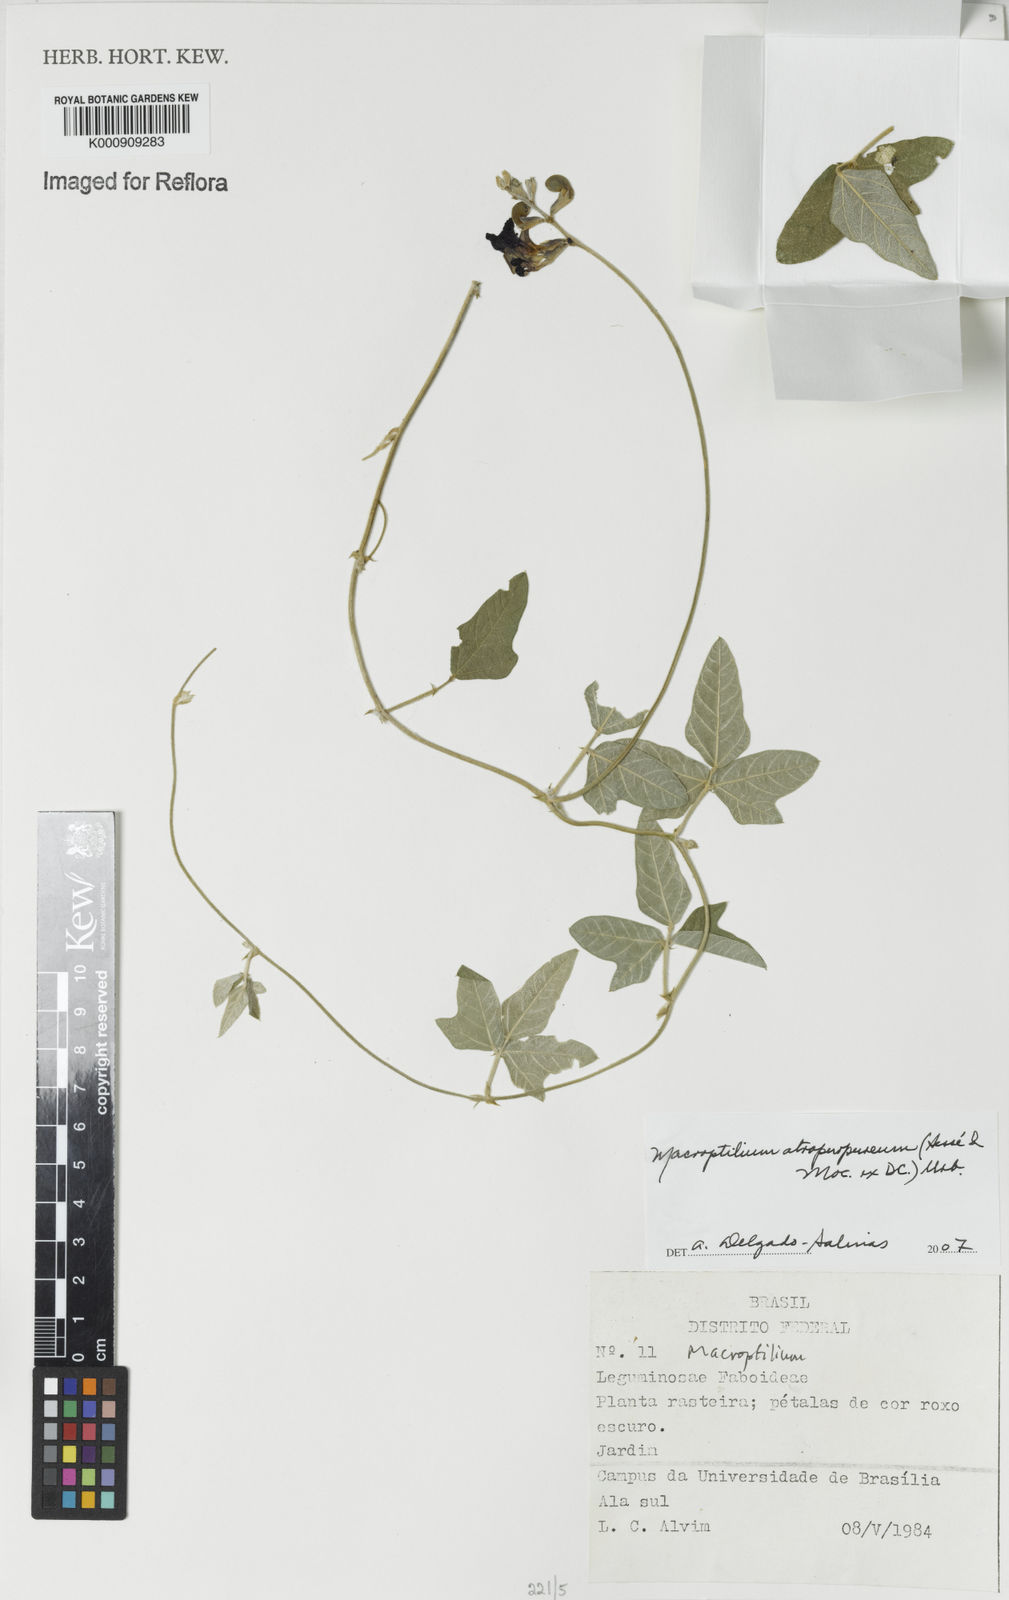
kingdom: Plantae
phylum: Tracheophyta
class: Magnoliopsida
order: Fabales
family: Fabaceae
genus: Macroptilium
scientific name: Macroptilium
